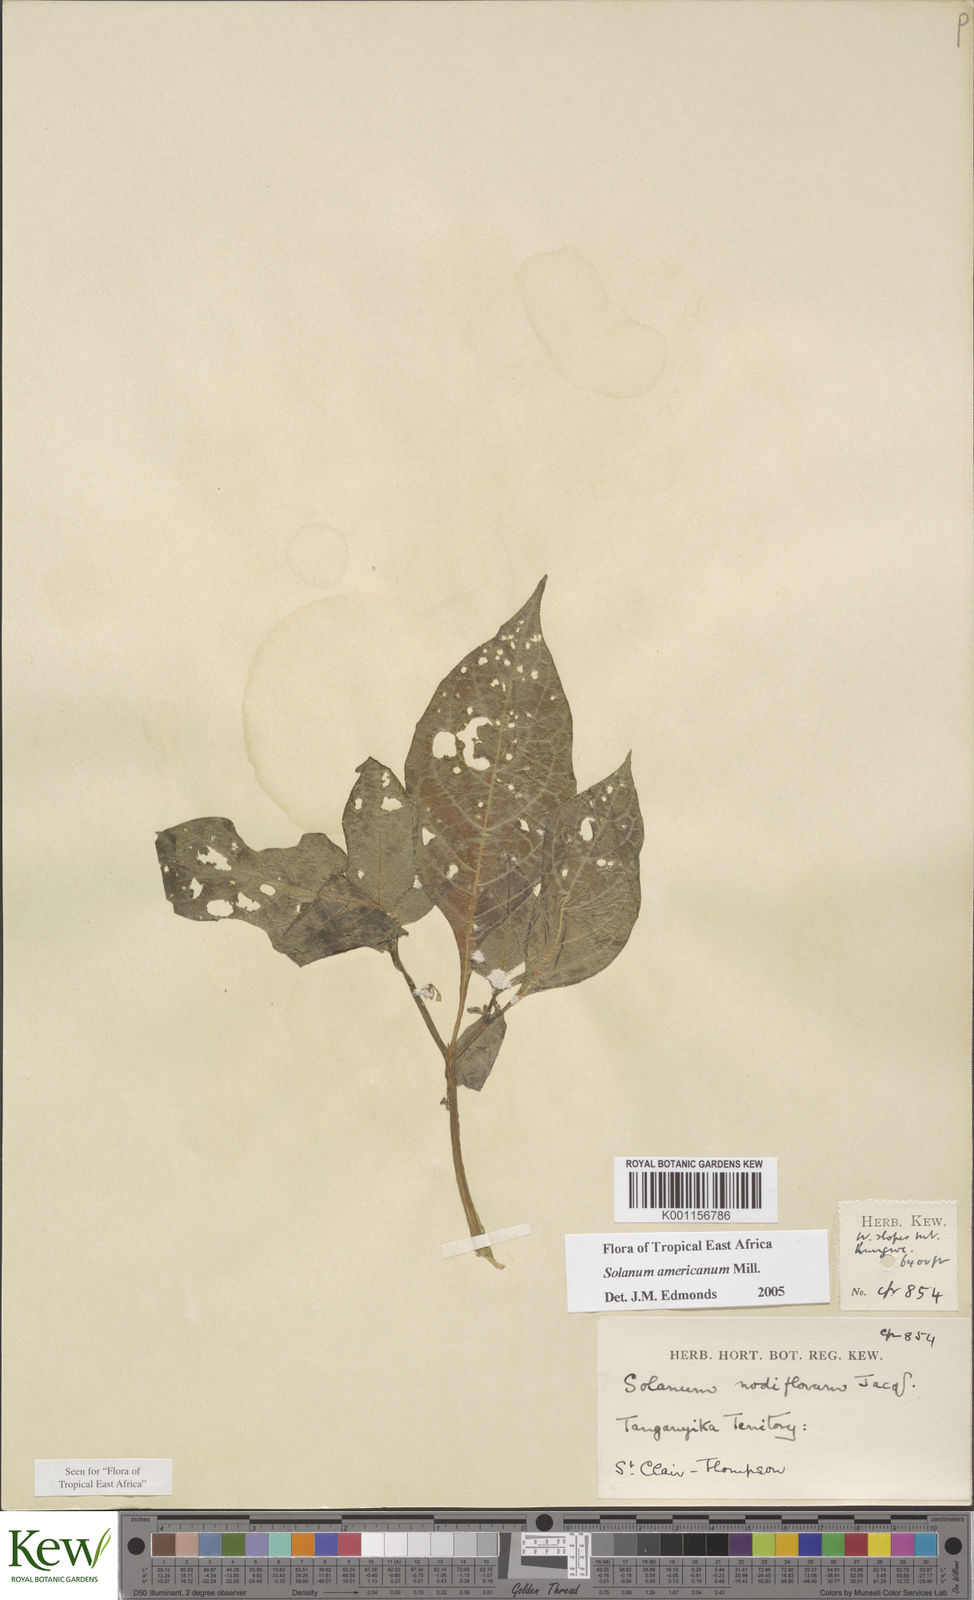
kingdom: Plantae
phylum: Tracheophyta
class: Magnoliopsida
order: Solanales
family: Solanaceae
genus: Solanum
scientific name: Solanum americanum
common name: American black nightshade
